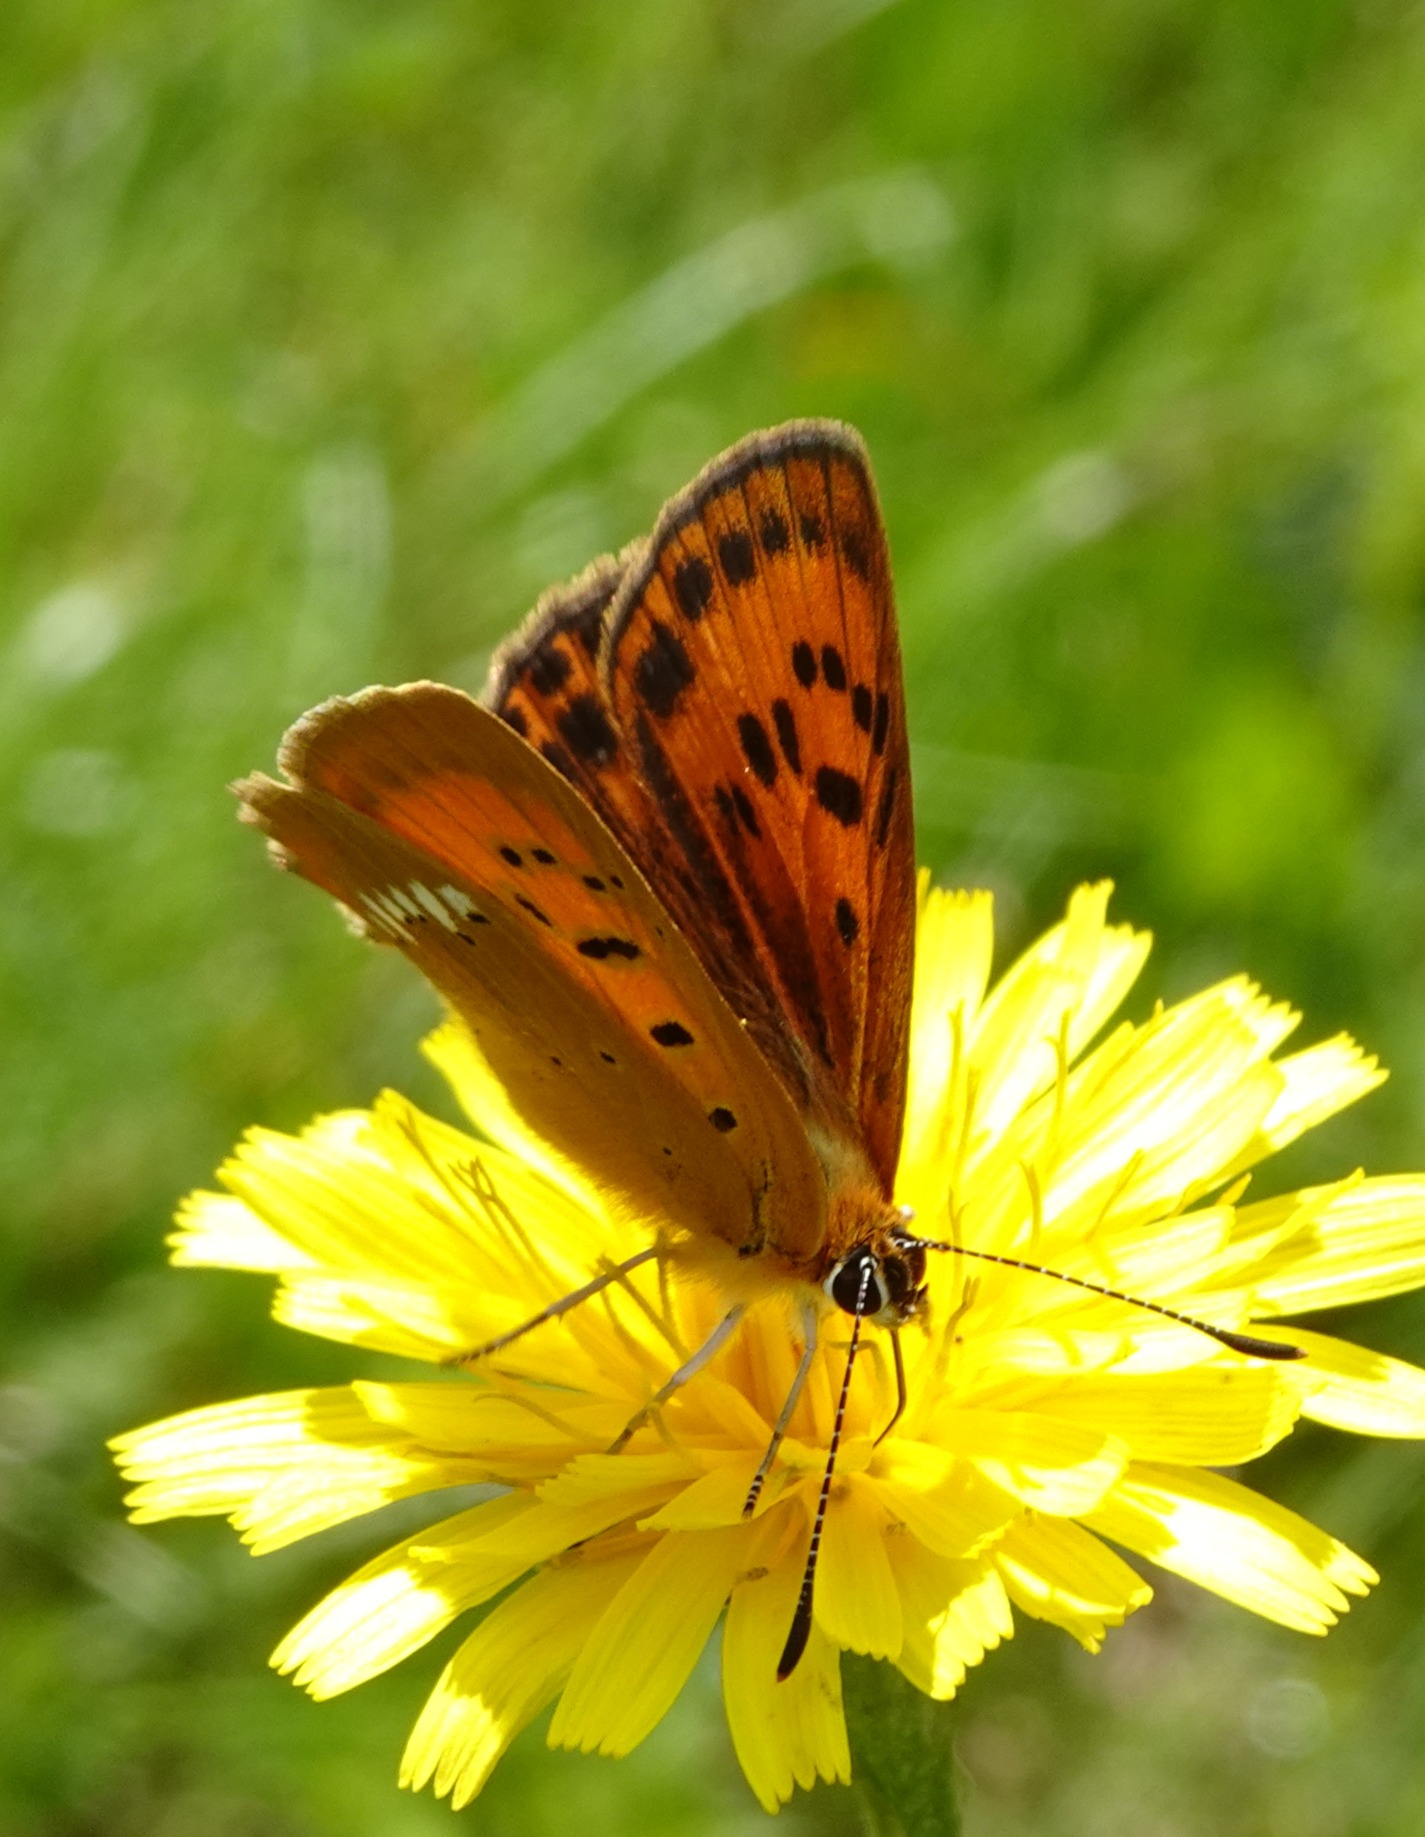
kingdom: Animalia
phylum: Arthropoda
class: Insecta
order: Lepidoptera
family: Lycaenidae
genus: Lycaena
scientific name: Lycaena virgaureae
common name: Dukatsommerfugl
